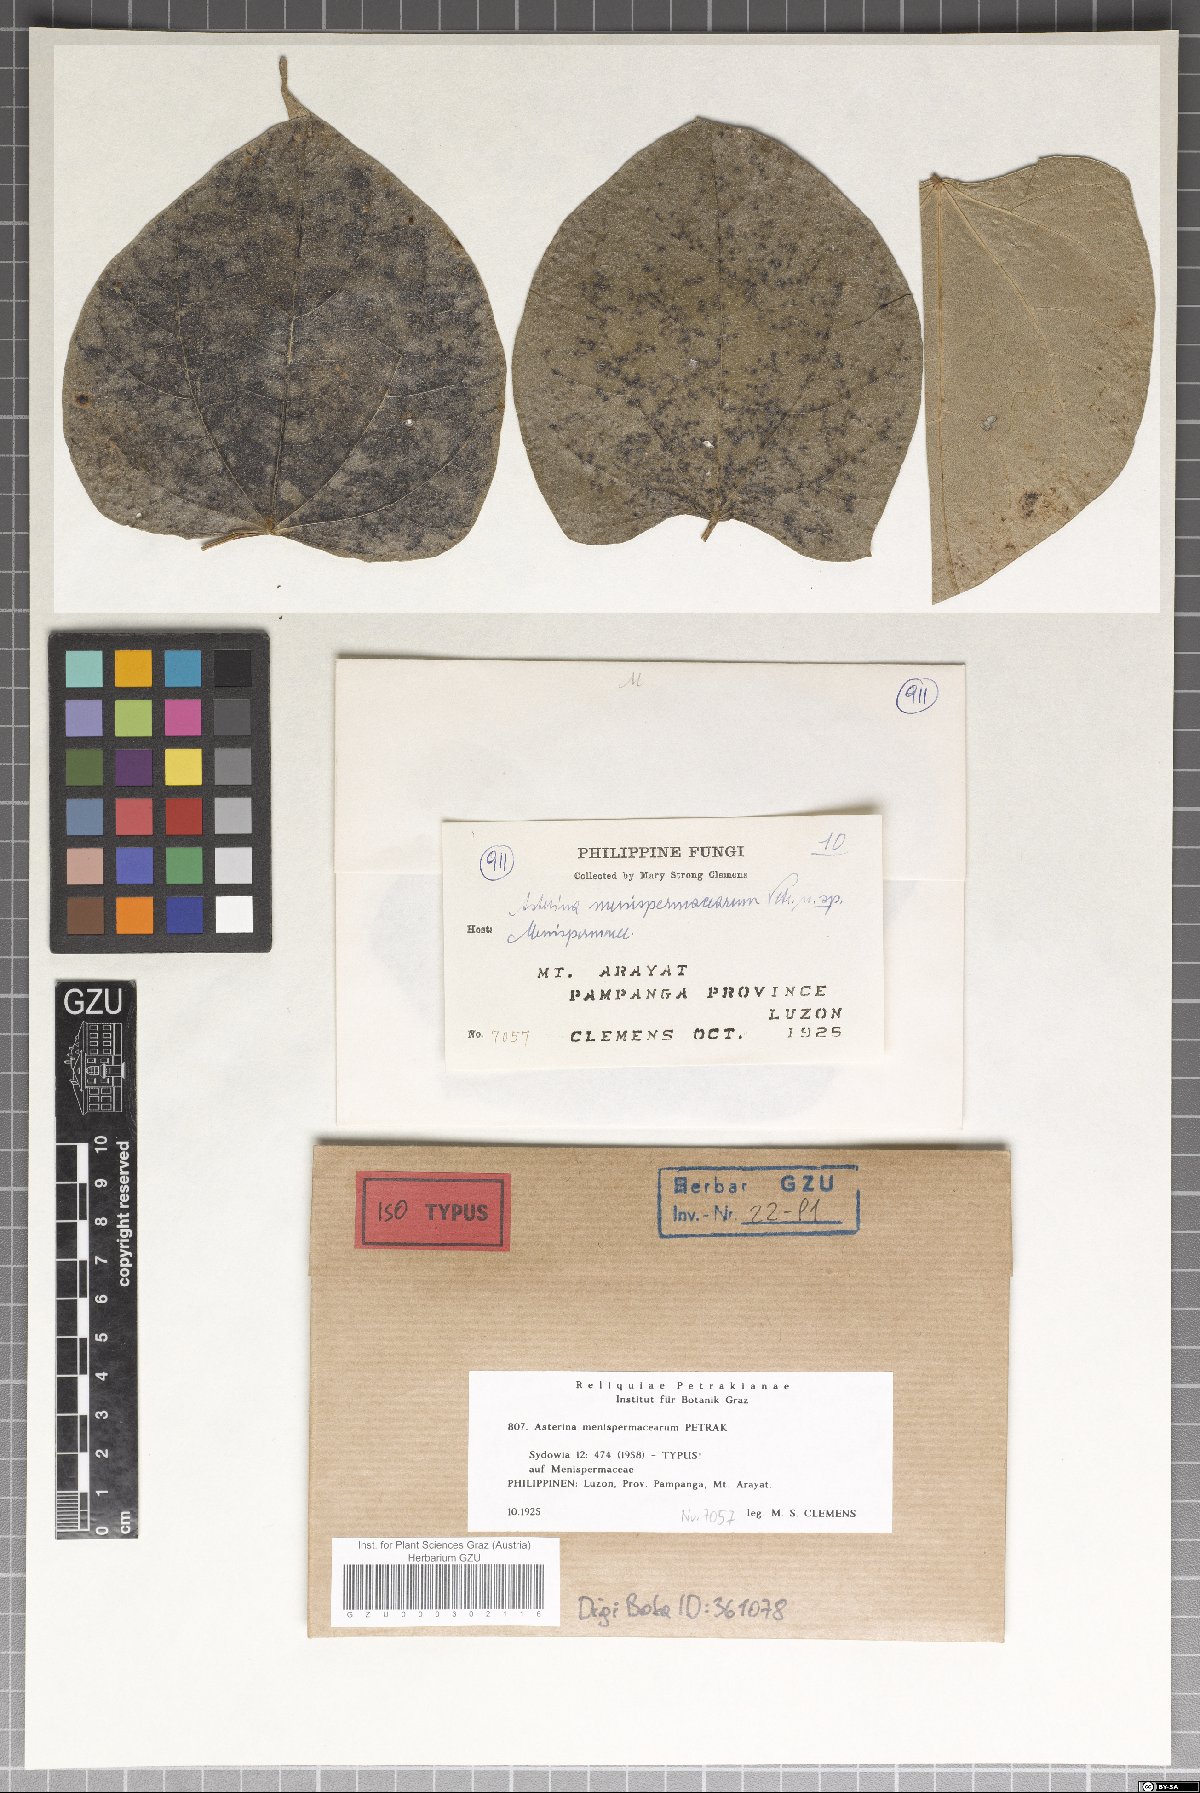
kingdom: Fungi
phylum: Ascomycota
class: Dothideomycetes
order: Asterinales
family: Asterinaceae
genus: Asterina
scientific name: Asterina menispermacearum
